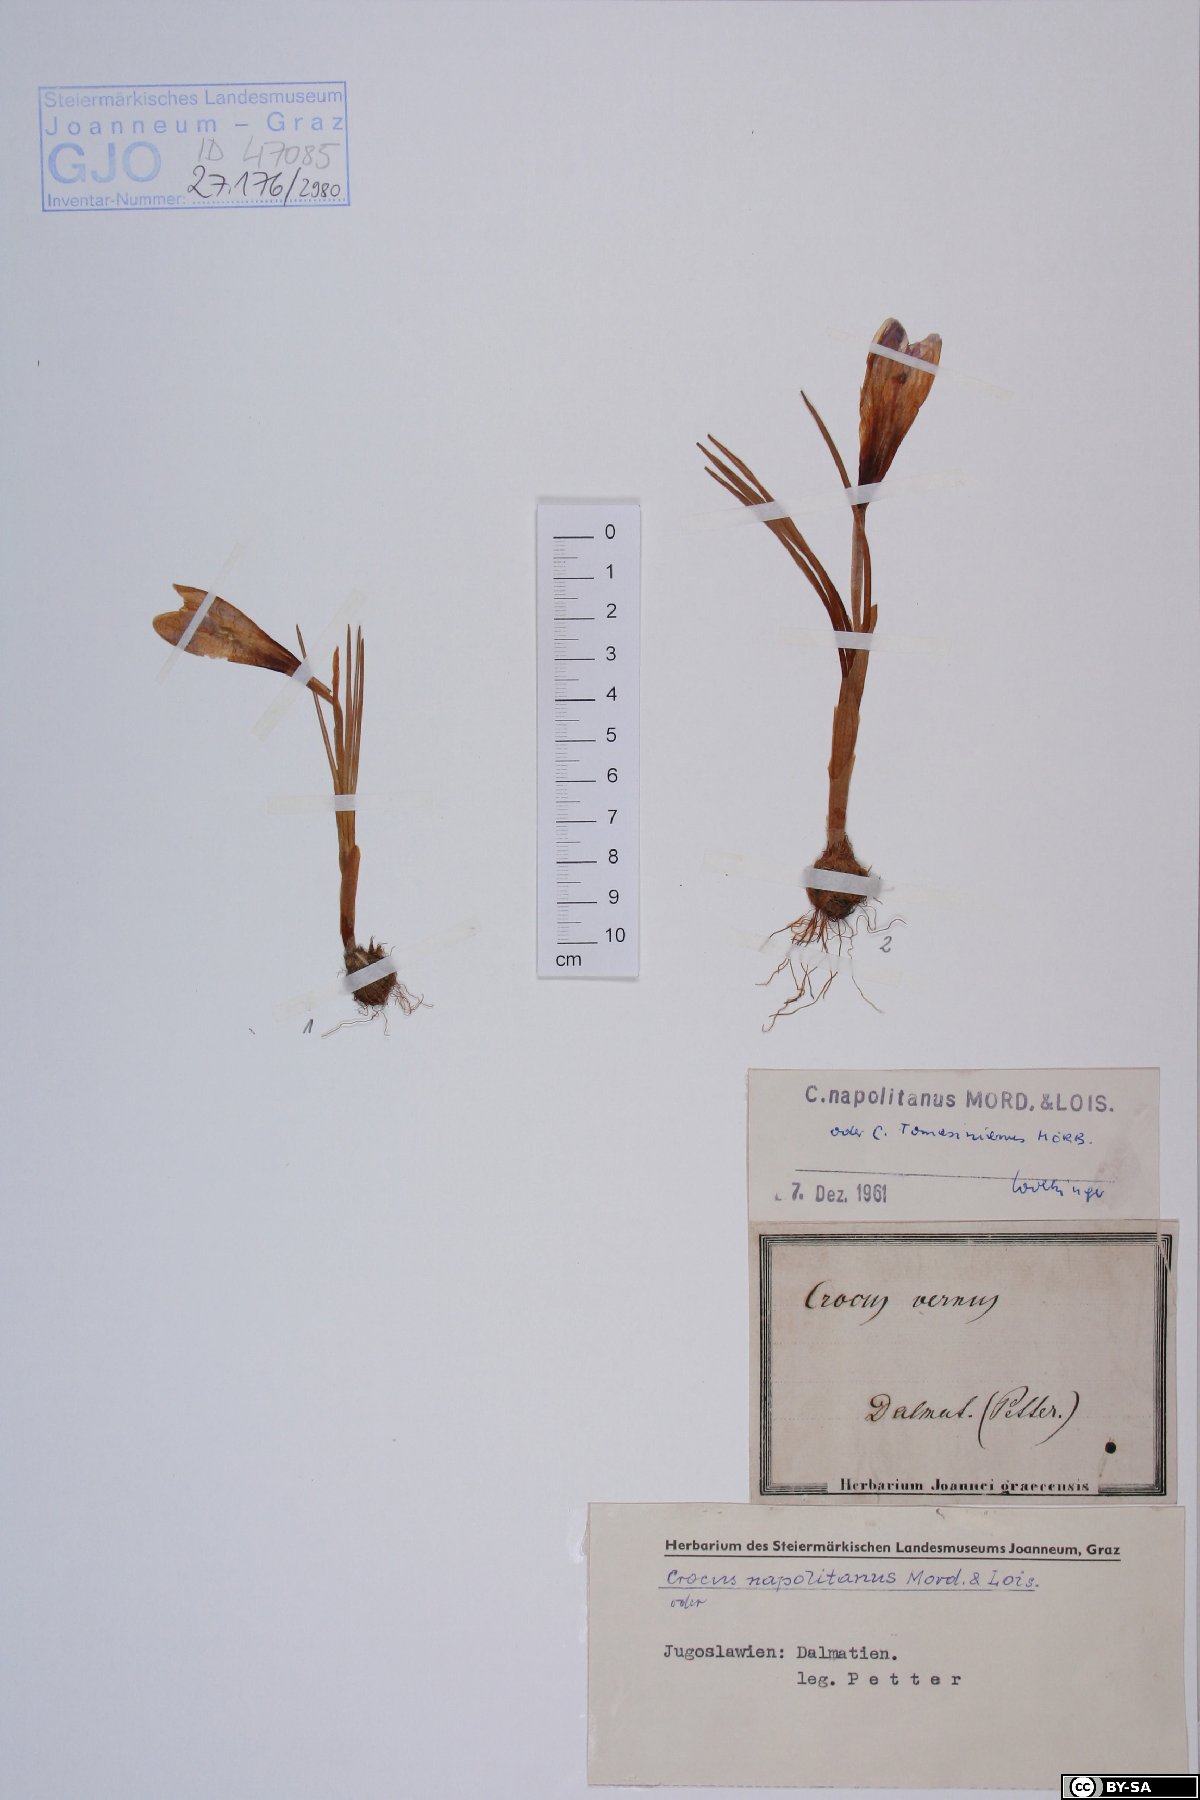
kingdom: Plantae
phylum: Tracheophyta
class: Liliopsida
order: Asparagales
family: Iridaceae
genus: Crocus
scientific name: Crocus vernus
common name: Spring crocus
